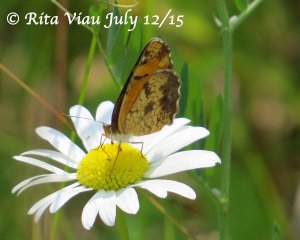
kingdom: Animalia
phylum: Arthropoda
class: Insecta
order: Lepidoptera
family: Nymphalidae
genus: Phyciodes
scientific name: Phyciodes tharos
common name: Northern Crescent
